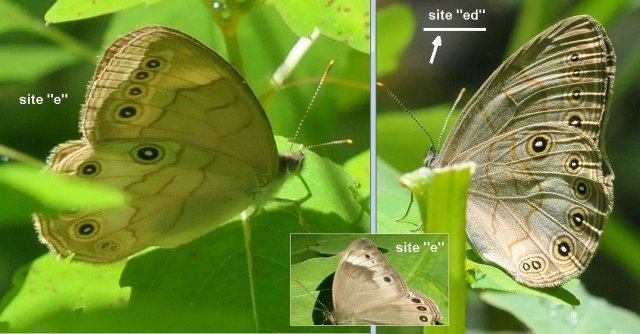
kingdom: Animalia
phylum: Arthropoda
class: Insecta
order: Lepidoptera
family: Nymphalidae
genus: Lethe
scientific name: Lethe eurydice
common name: Appalachian Eyed Brown
